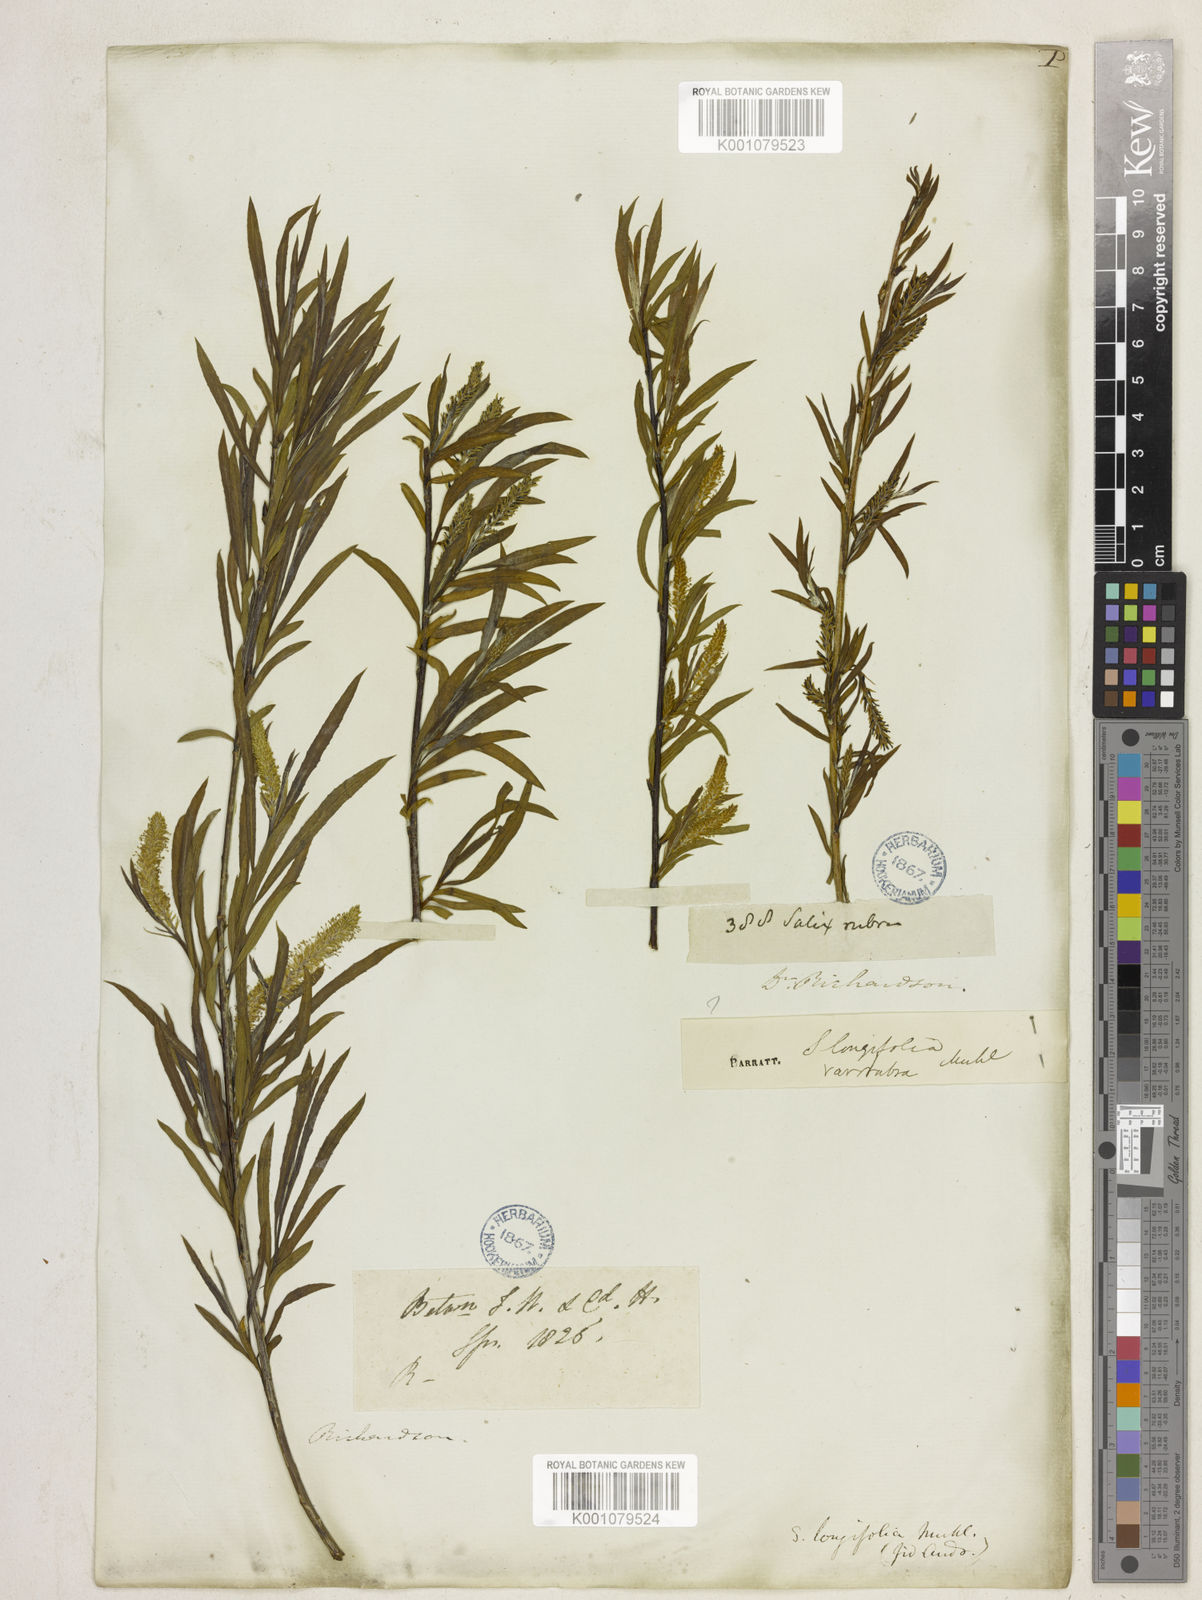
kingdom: Plantae
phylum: Tracheophyta
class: Magnoliopsida
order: Malpighiales
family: Salicaceae
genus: Salix
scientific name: Salix interior
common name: Sandbar willow
